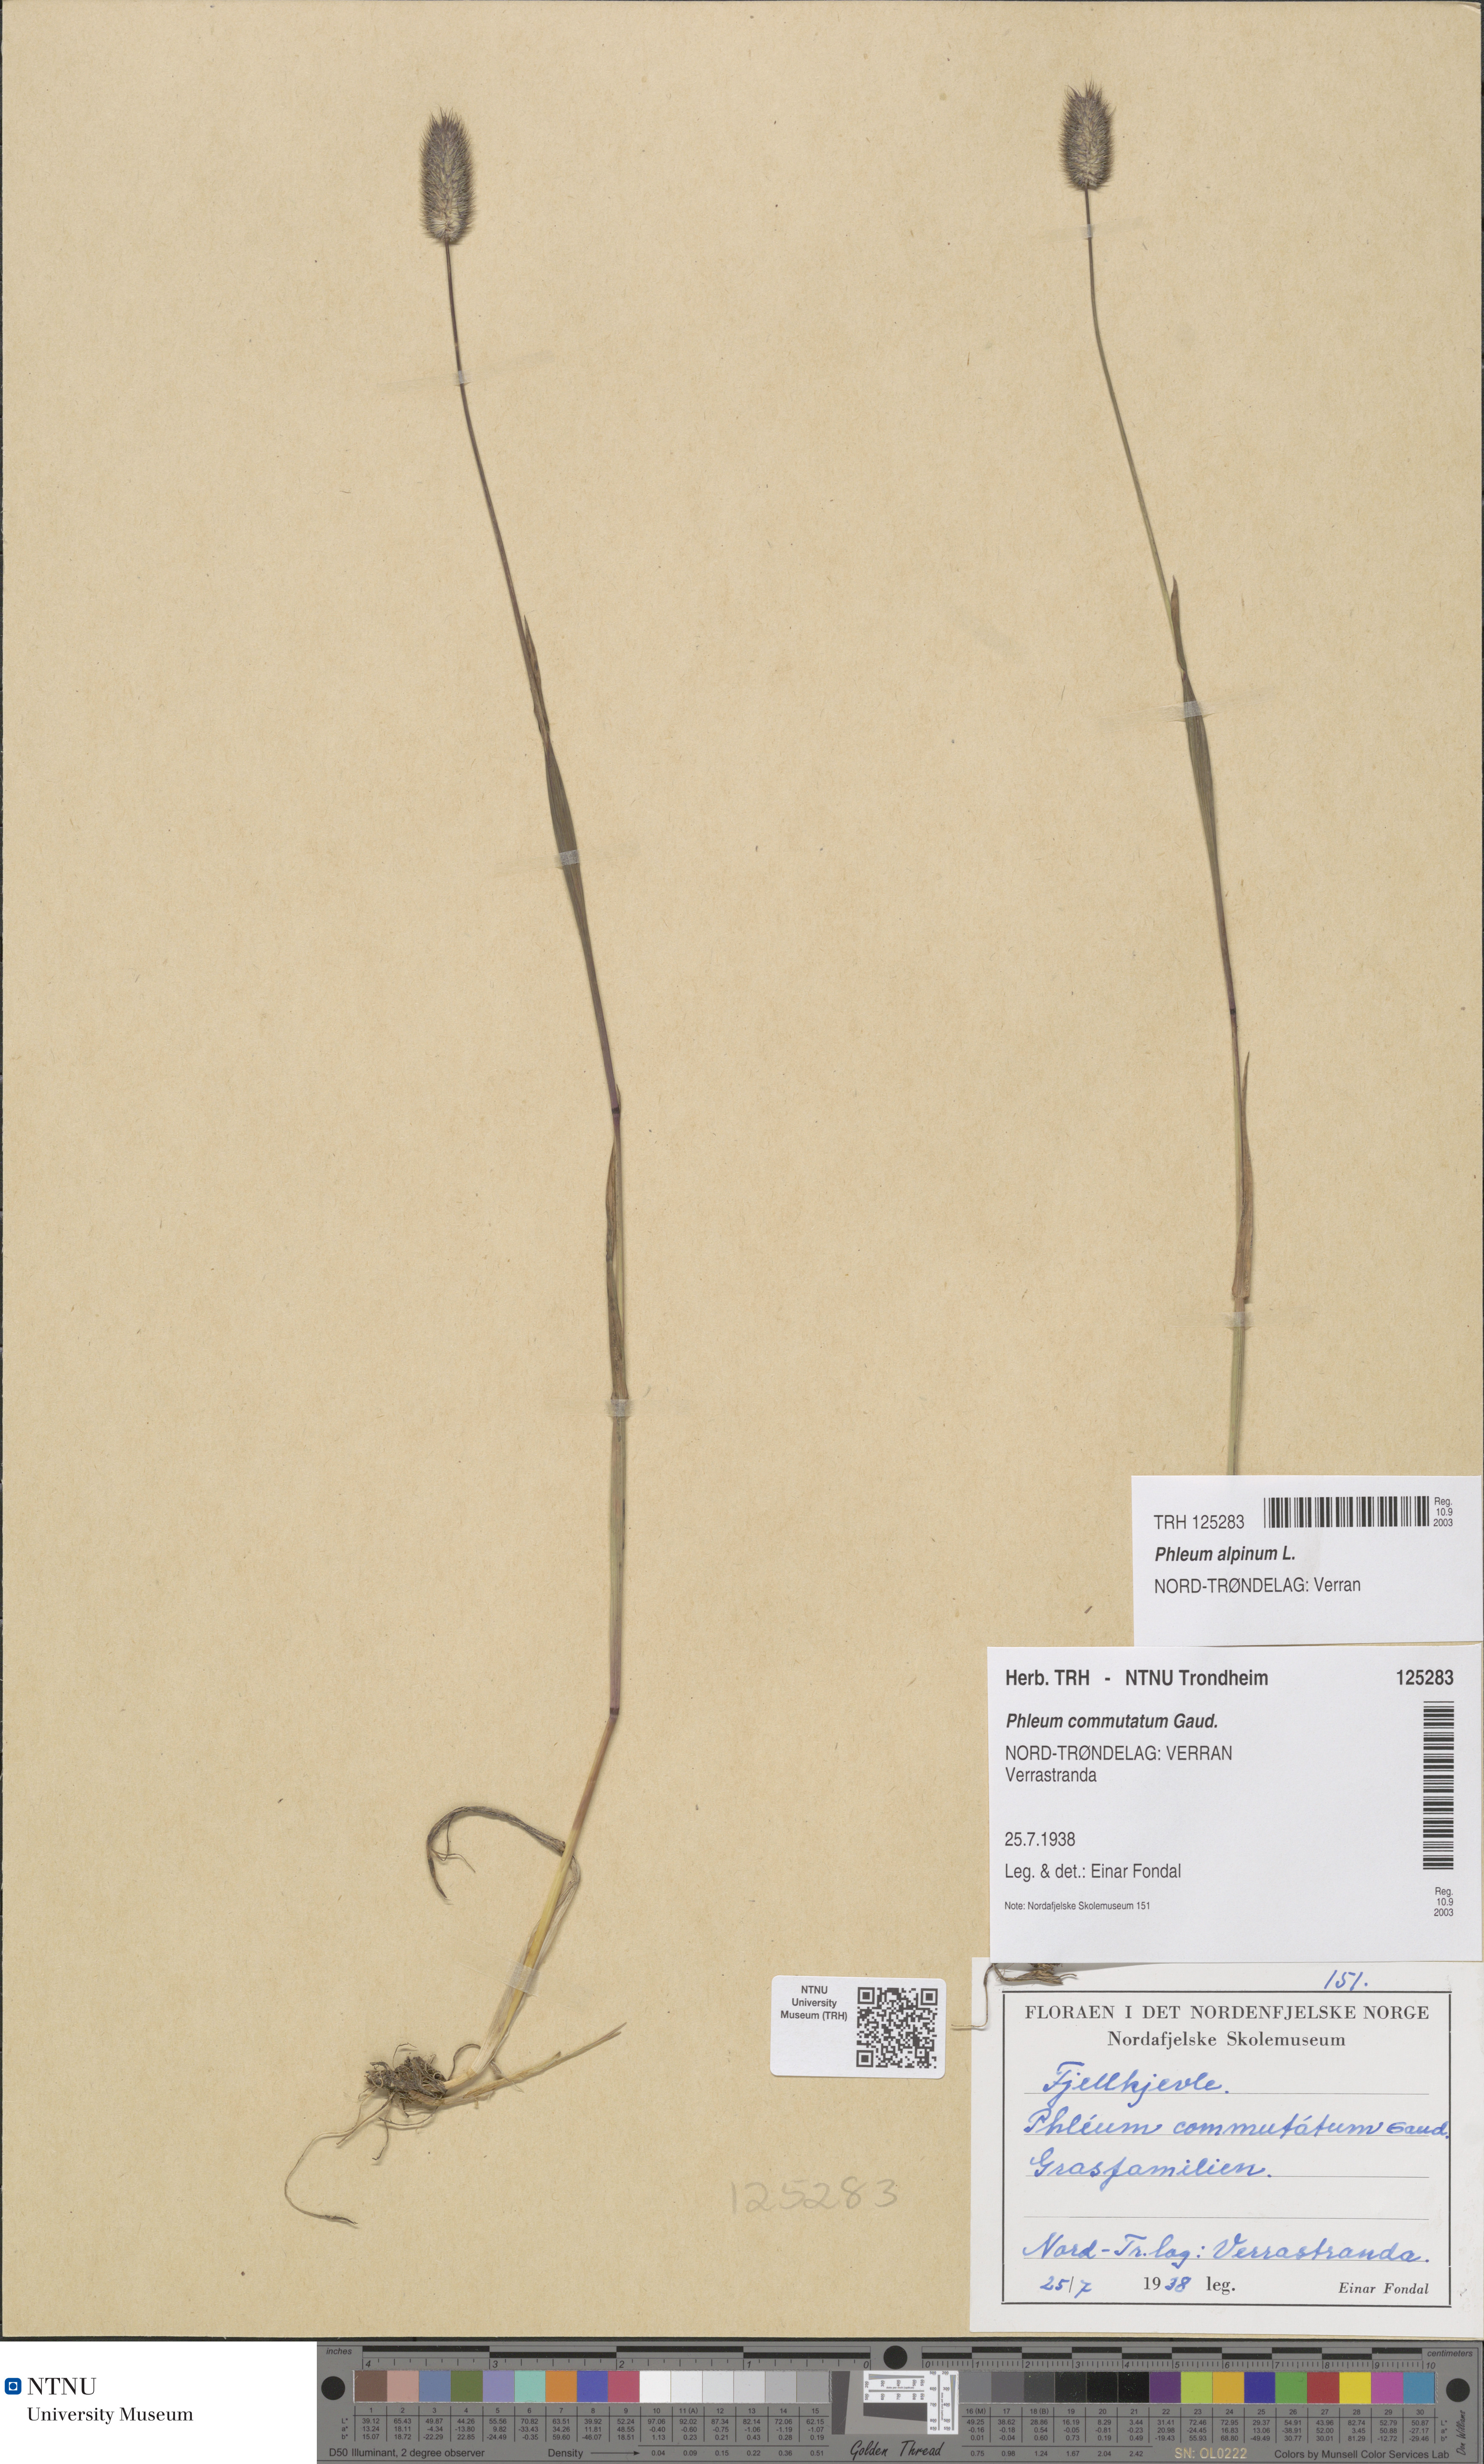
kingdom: Plantae
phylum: Tracheophyta
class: Liliopsida
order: Poales
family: Poaceae
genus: Phleum
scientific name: Phleum alpinum
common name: Alpine cat's-tail
